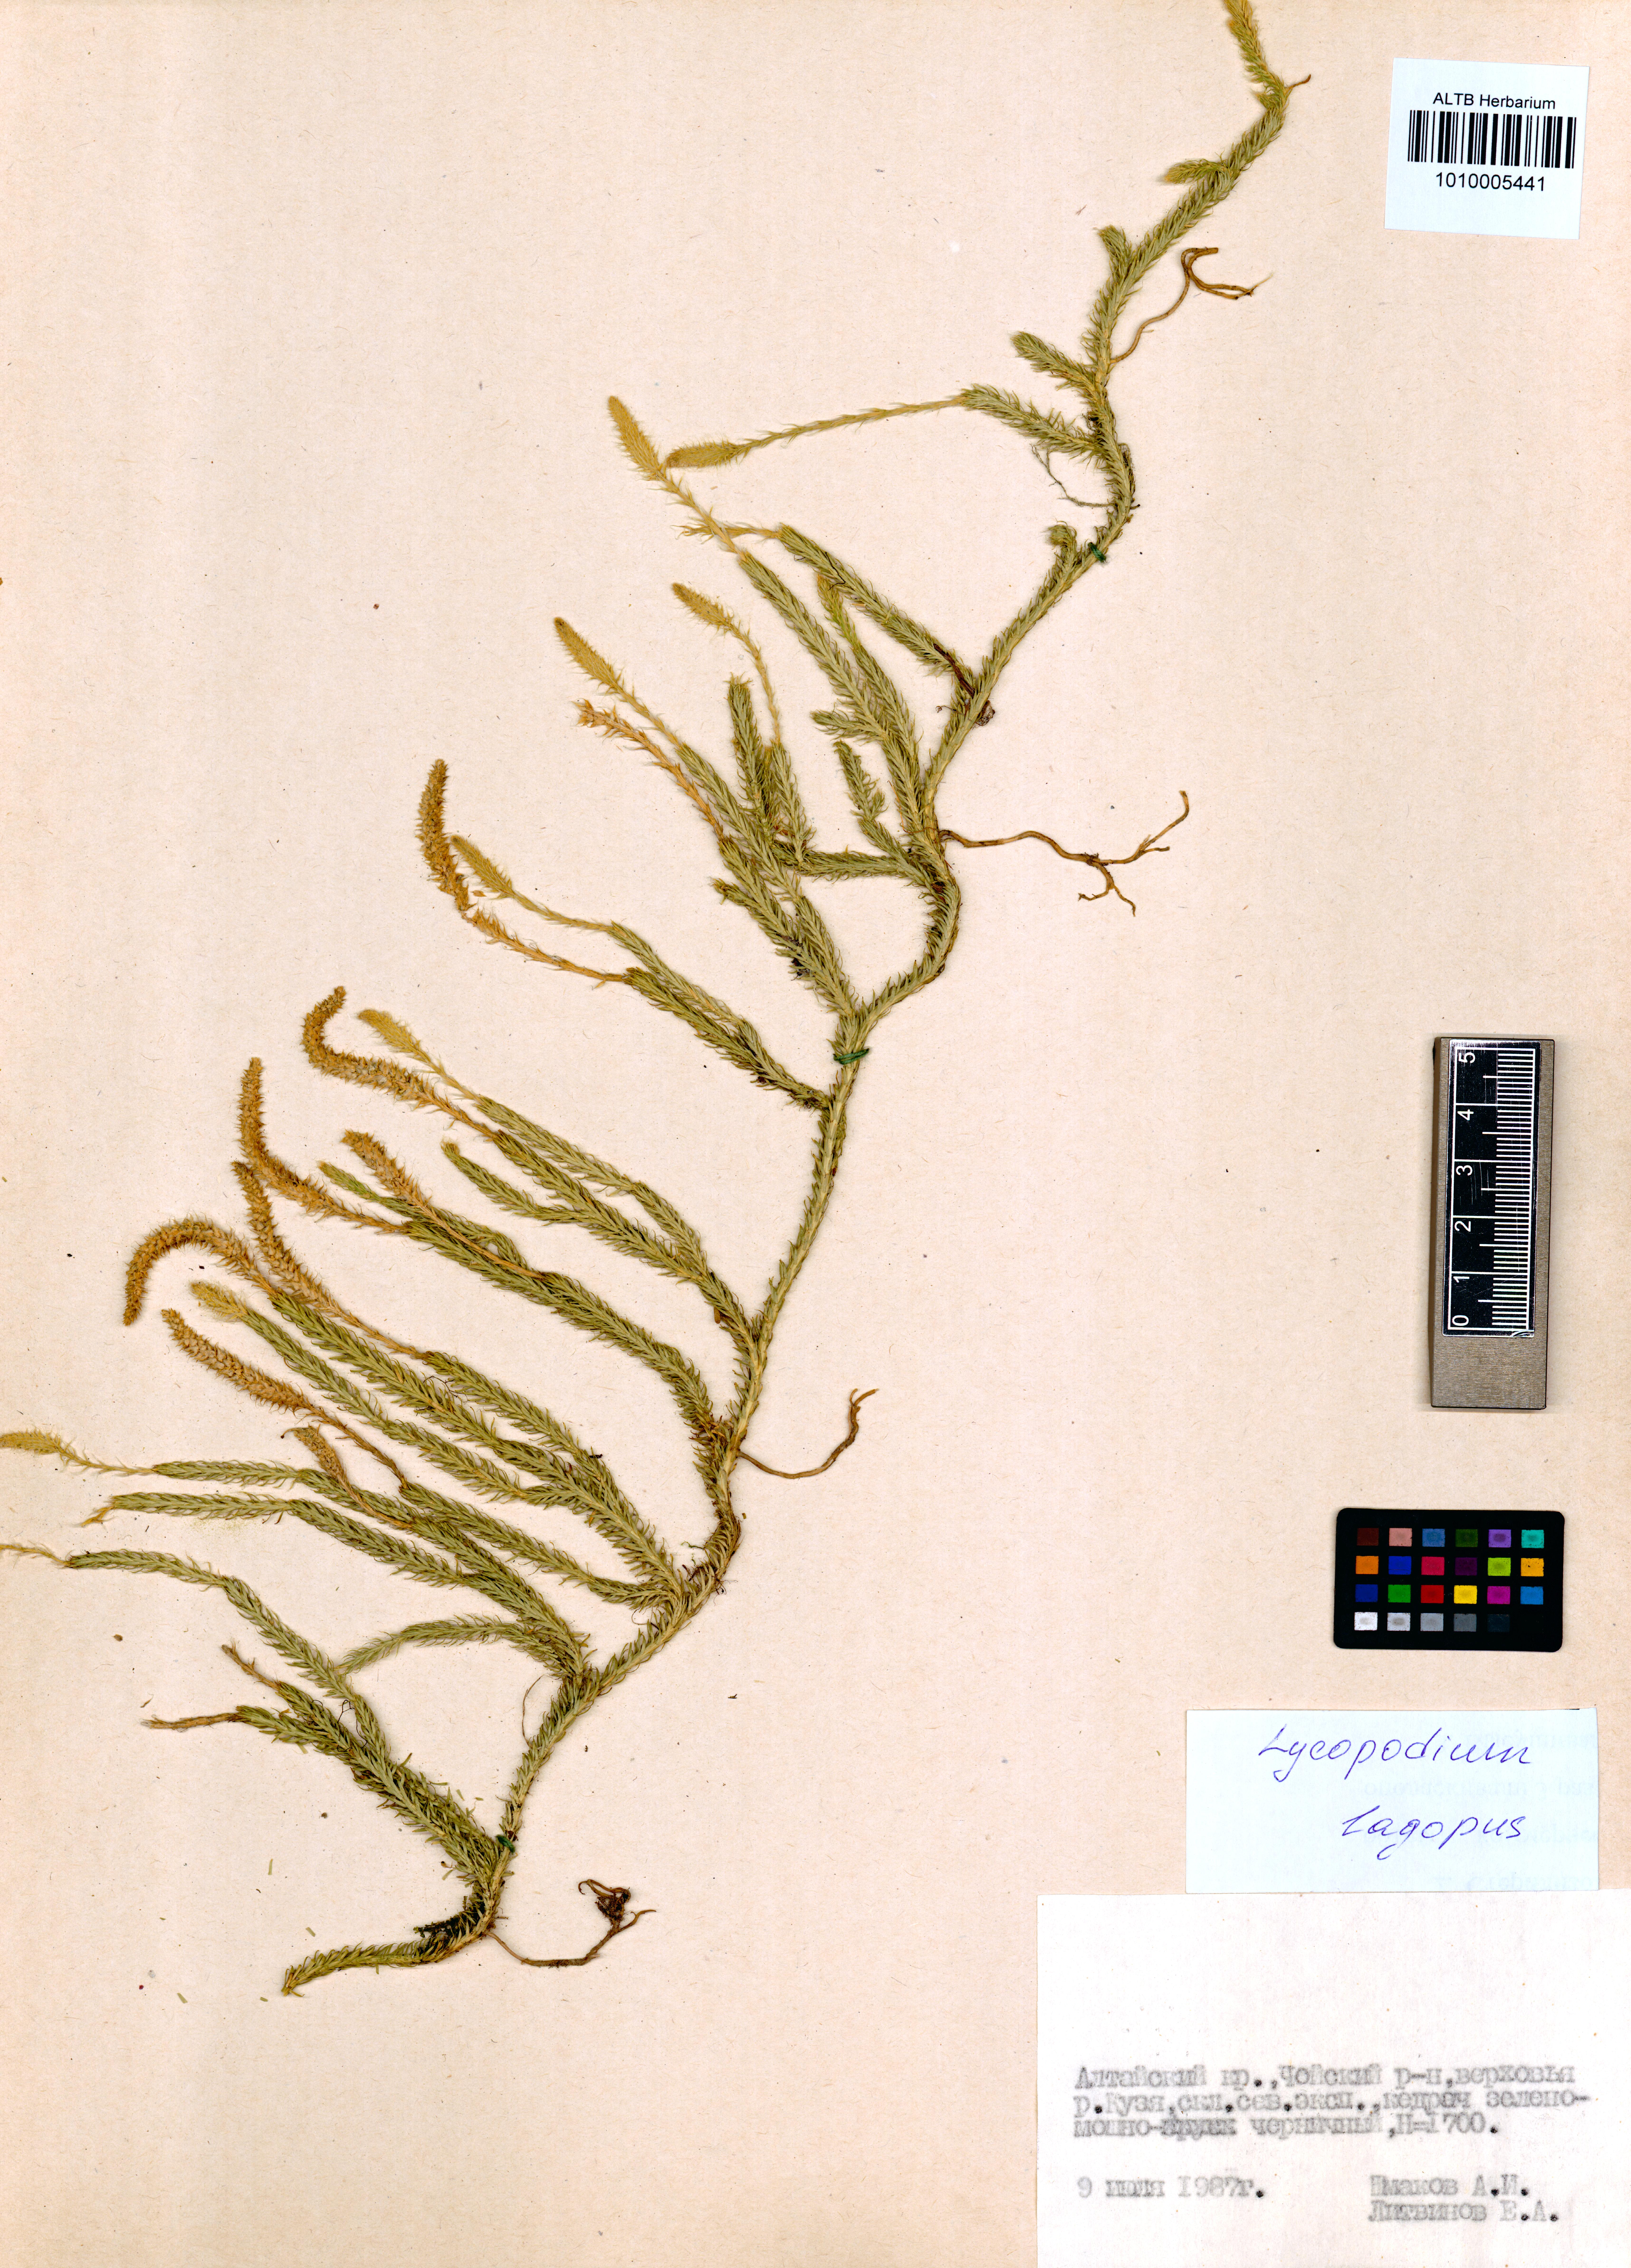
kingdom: Plantae
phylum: Tracheophyta
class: Lycopodiopsida
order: Lycopodiales
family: Lycopodiaceae
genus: Lycopodium
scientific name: Lycopodium lagopus
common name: One-cone clubmoss
